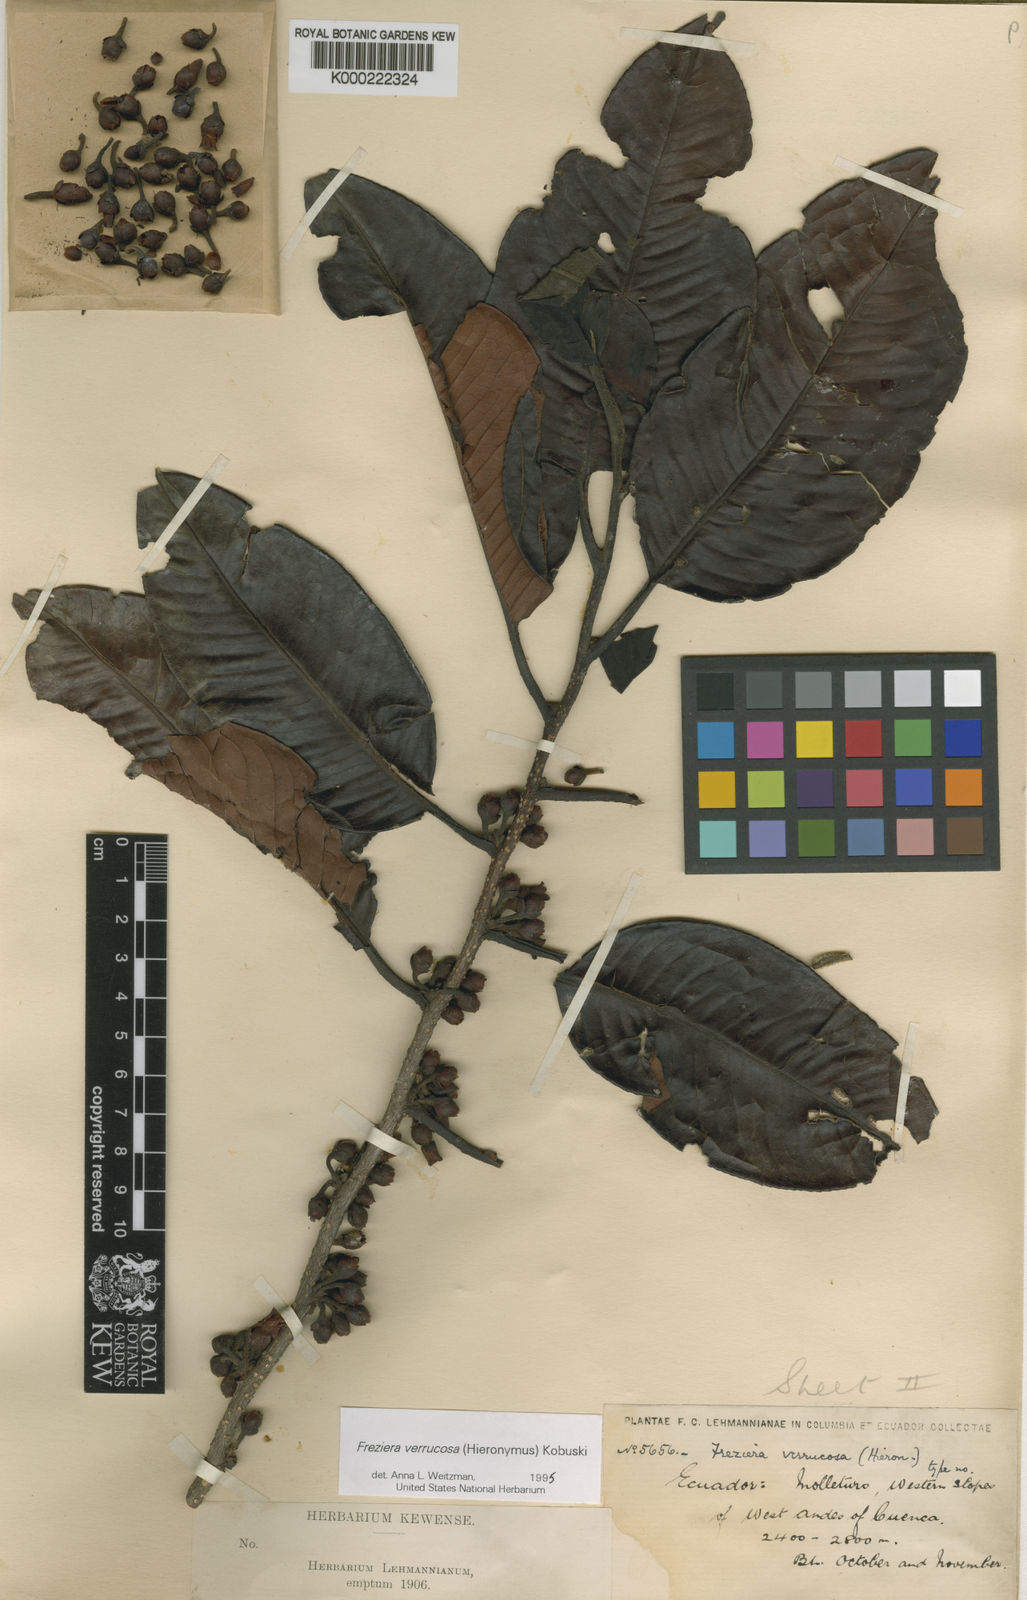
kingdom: Plantae
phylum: Tracheophyta
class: Magnoliopsida
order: Ericales
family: Pentaphylacaceae
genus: Freziera
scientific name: Freziera verrucosa
